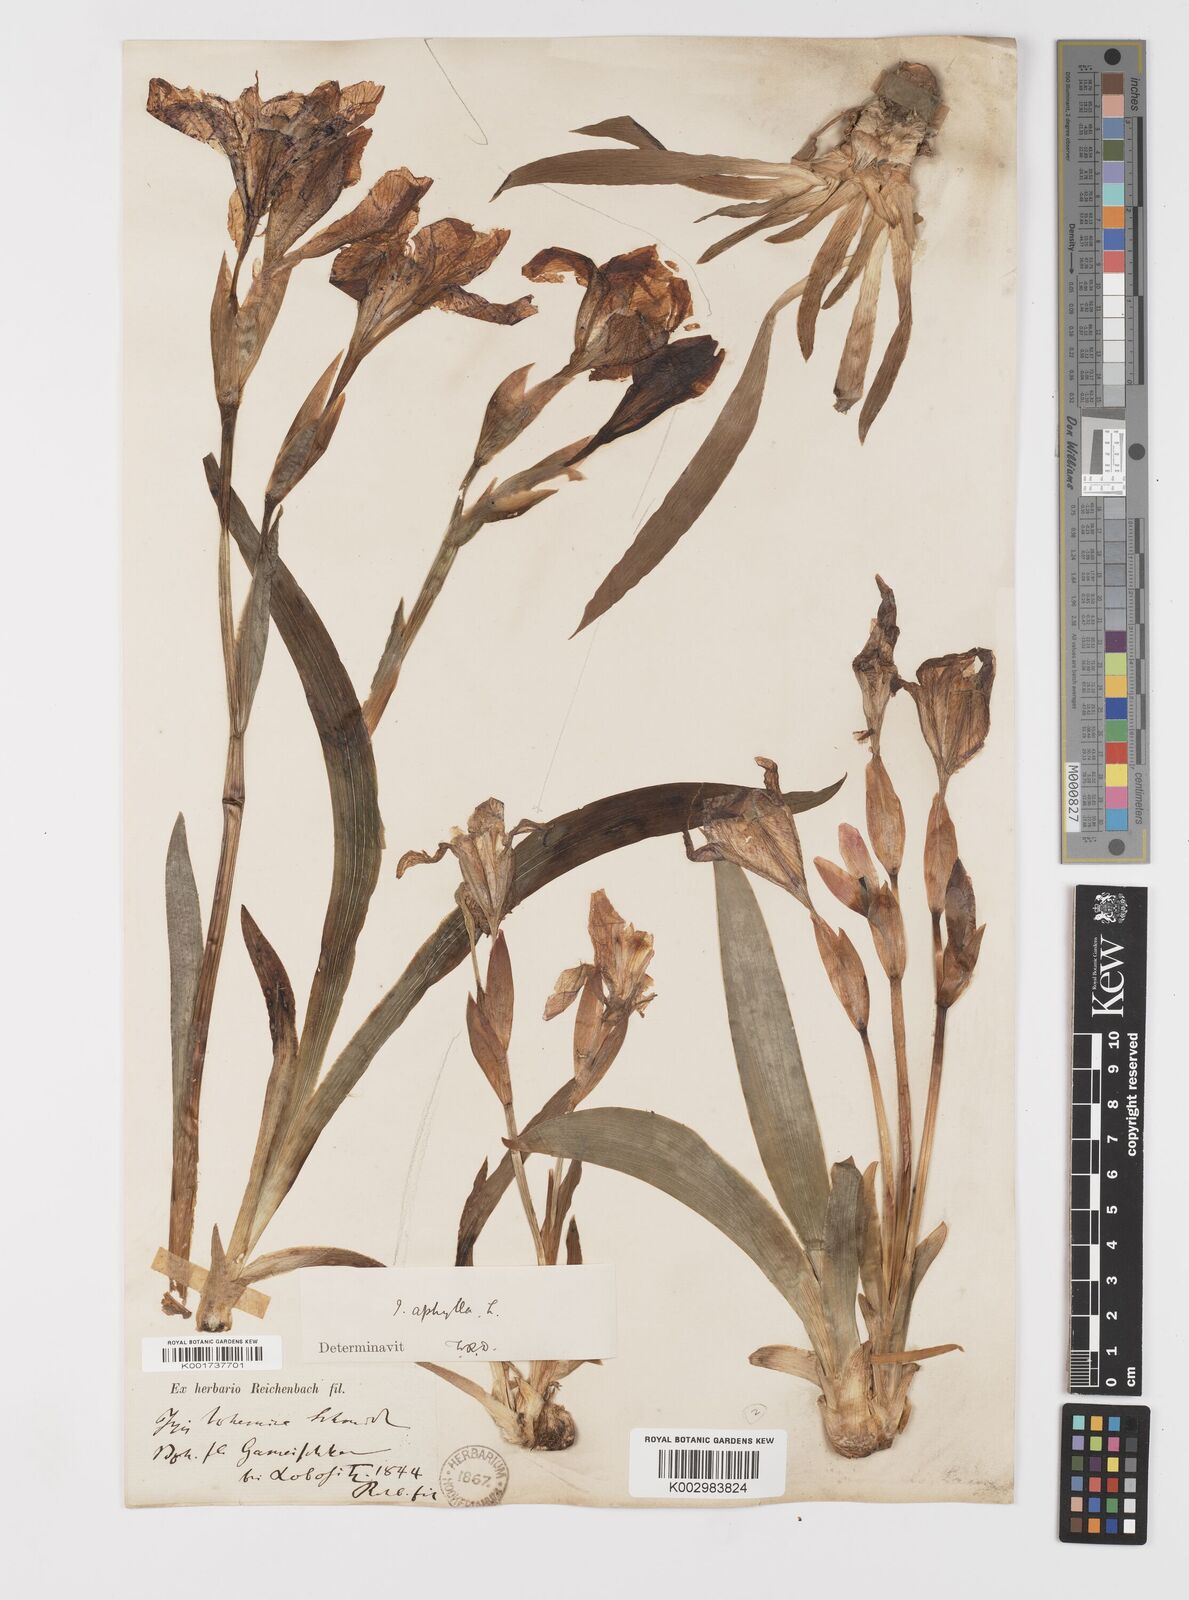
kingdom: Plantae
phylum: Tracheophyta
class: Liliopsida
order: Asparagales
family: Iridaceae
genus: Iris
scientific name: Iris aphylla
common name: Stool iris
